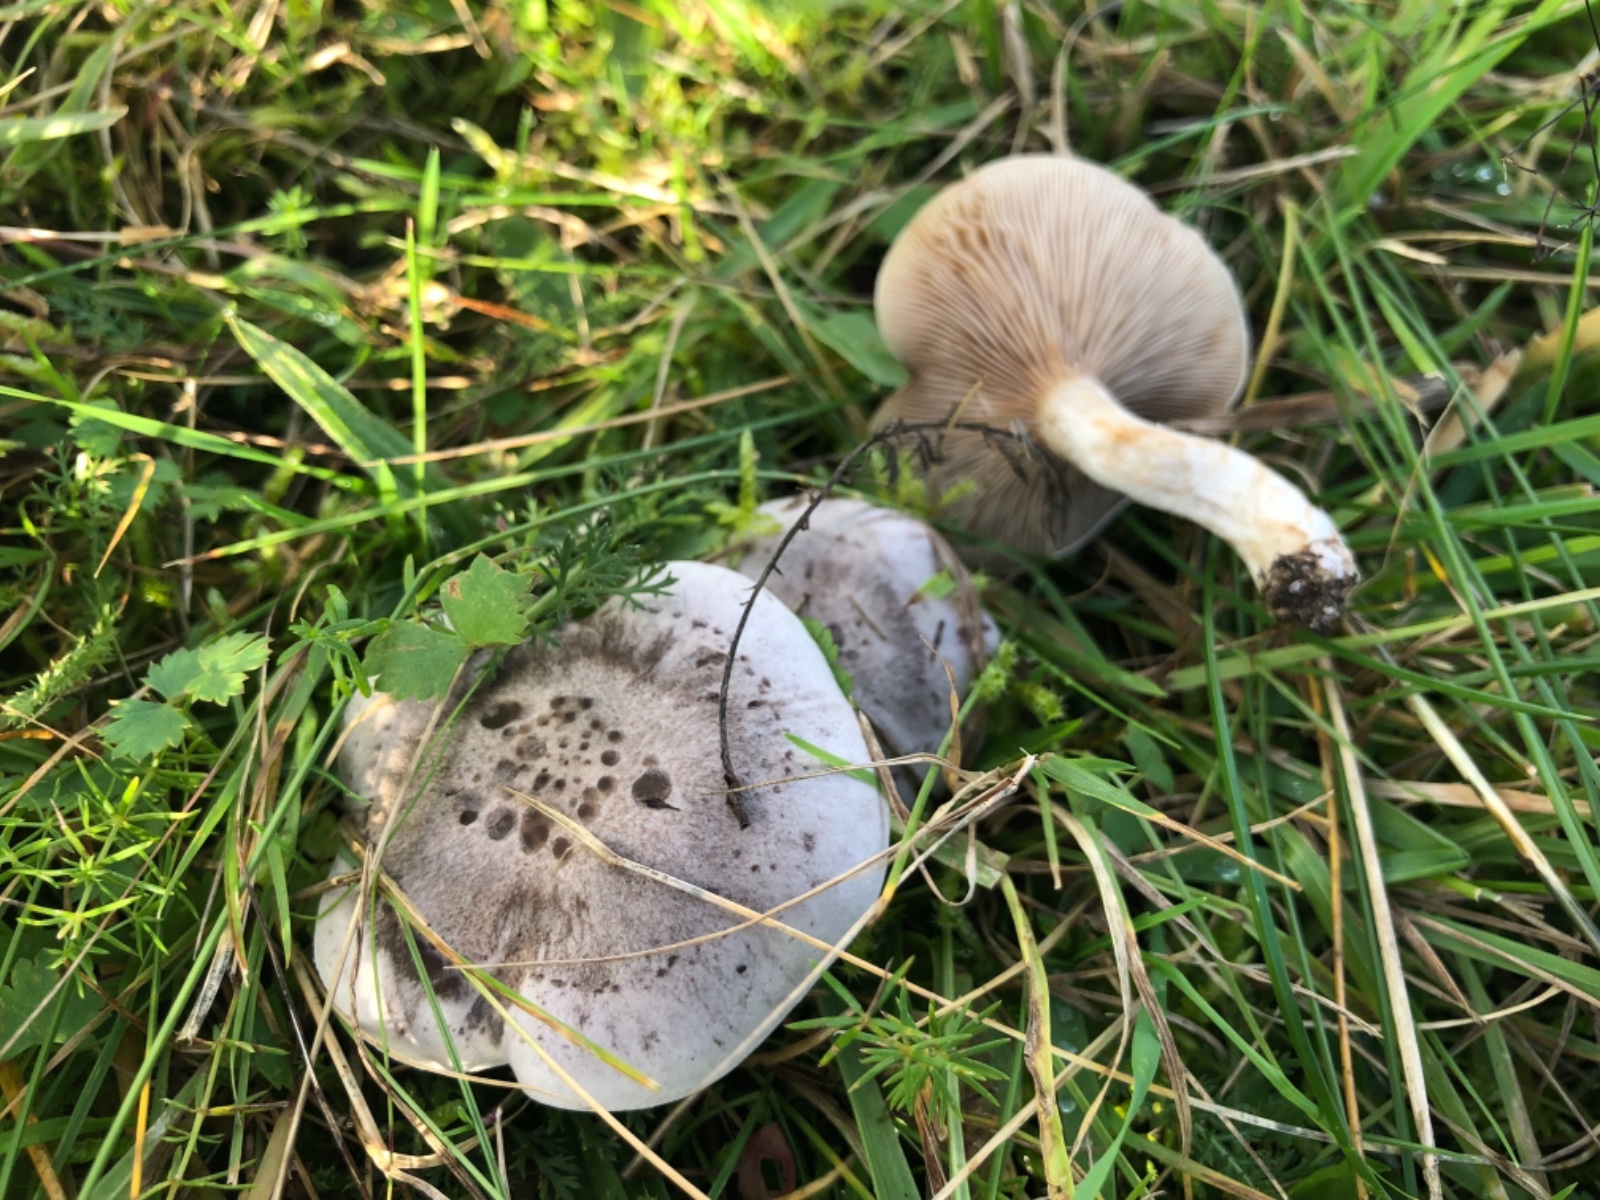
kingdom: Fungi
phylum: Basidiomycota
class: Agaricomycetes
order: Agaricales
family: Tricholomataceae
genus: Lepista
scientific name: Lepista panaeolus
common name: marmoreret hekseringshat
